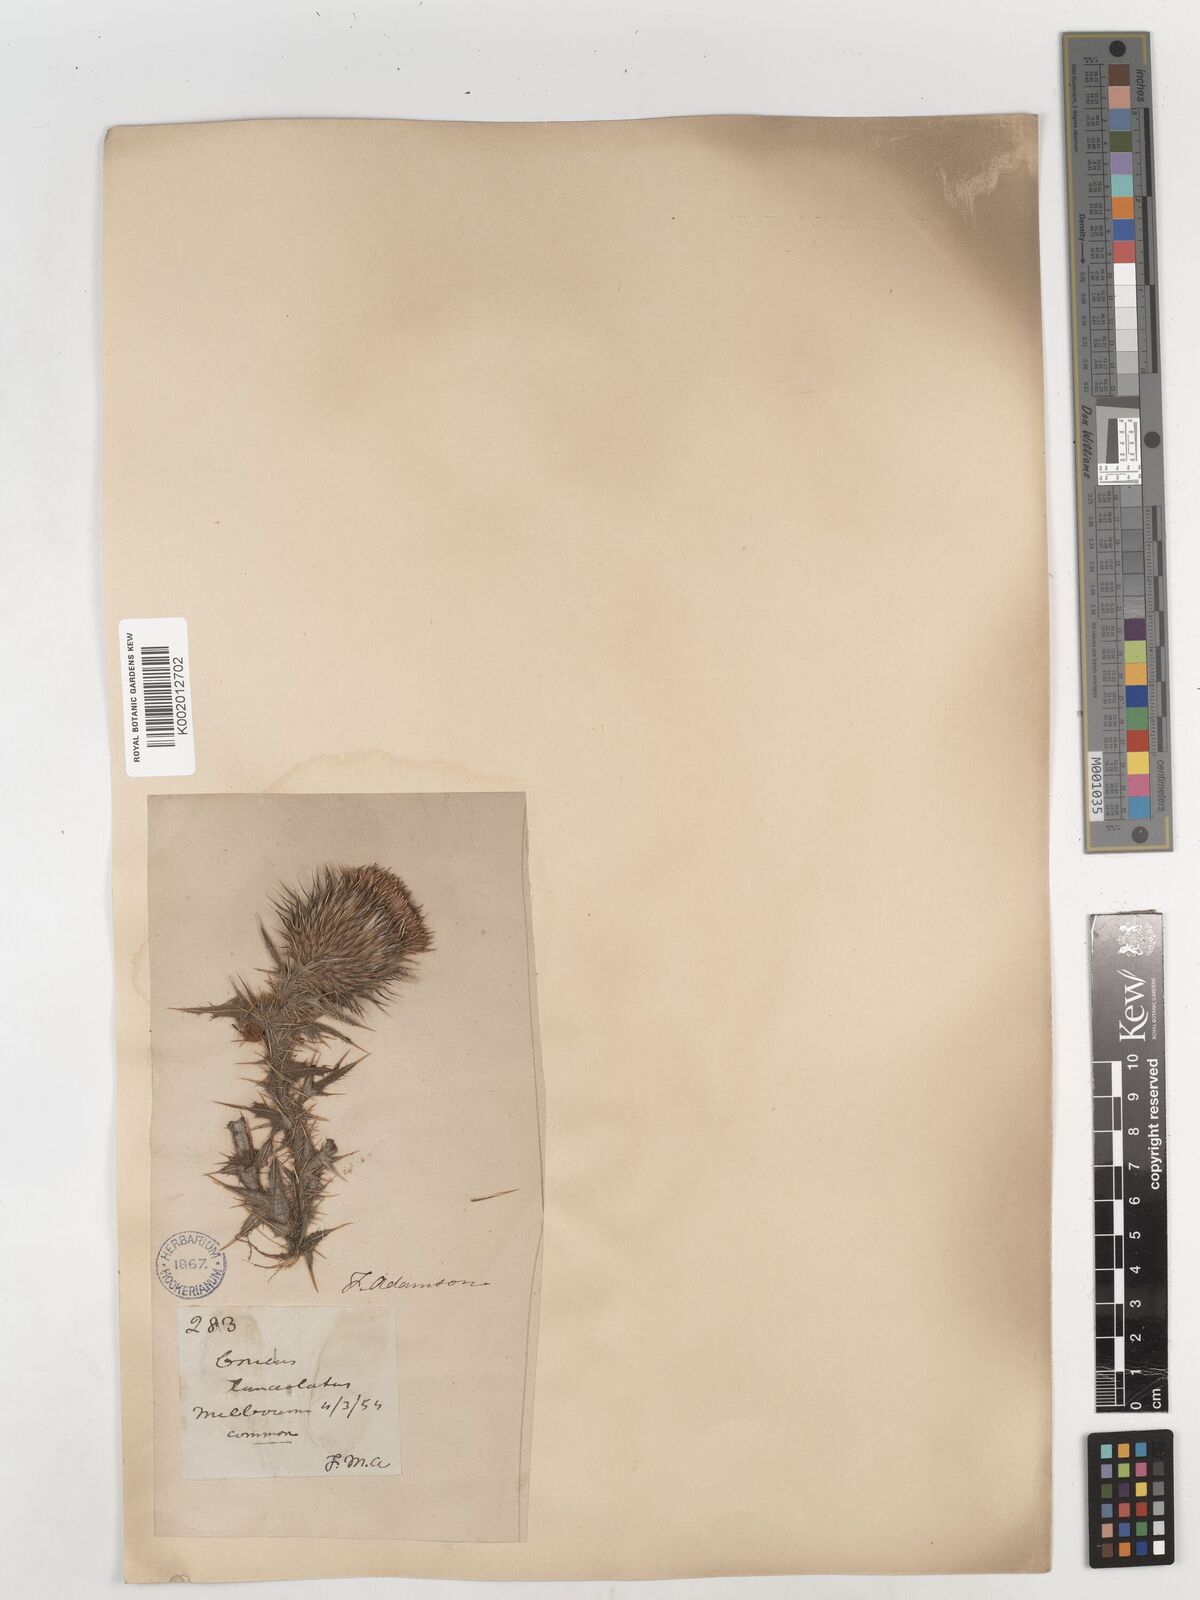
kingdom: Plantae
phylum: Tracheophyta
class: Magnoliopsida
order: Asterales
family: Asteraceae
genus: Cirsium
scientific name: Cirsium vulgare
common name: Bull thistle
